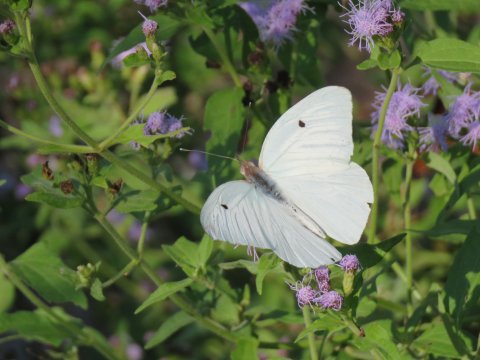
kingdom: Animalia
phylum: Arthropoda
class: Insecta
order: Lepidoptera
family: Pieridae
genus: Ganyra
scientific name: Ganyra josephina
